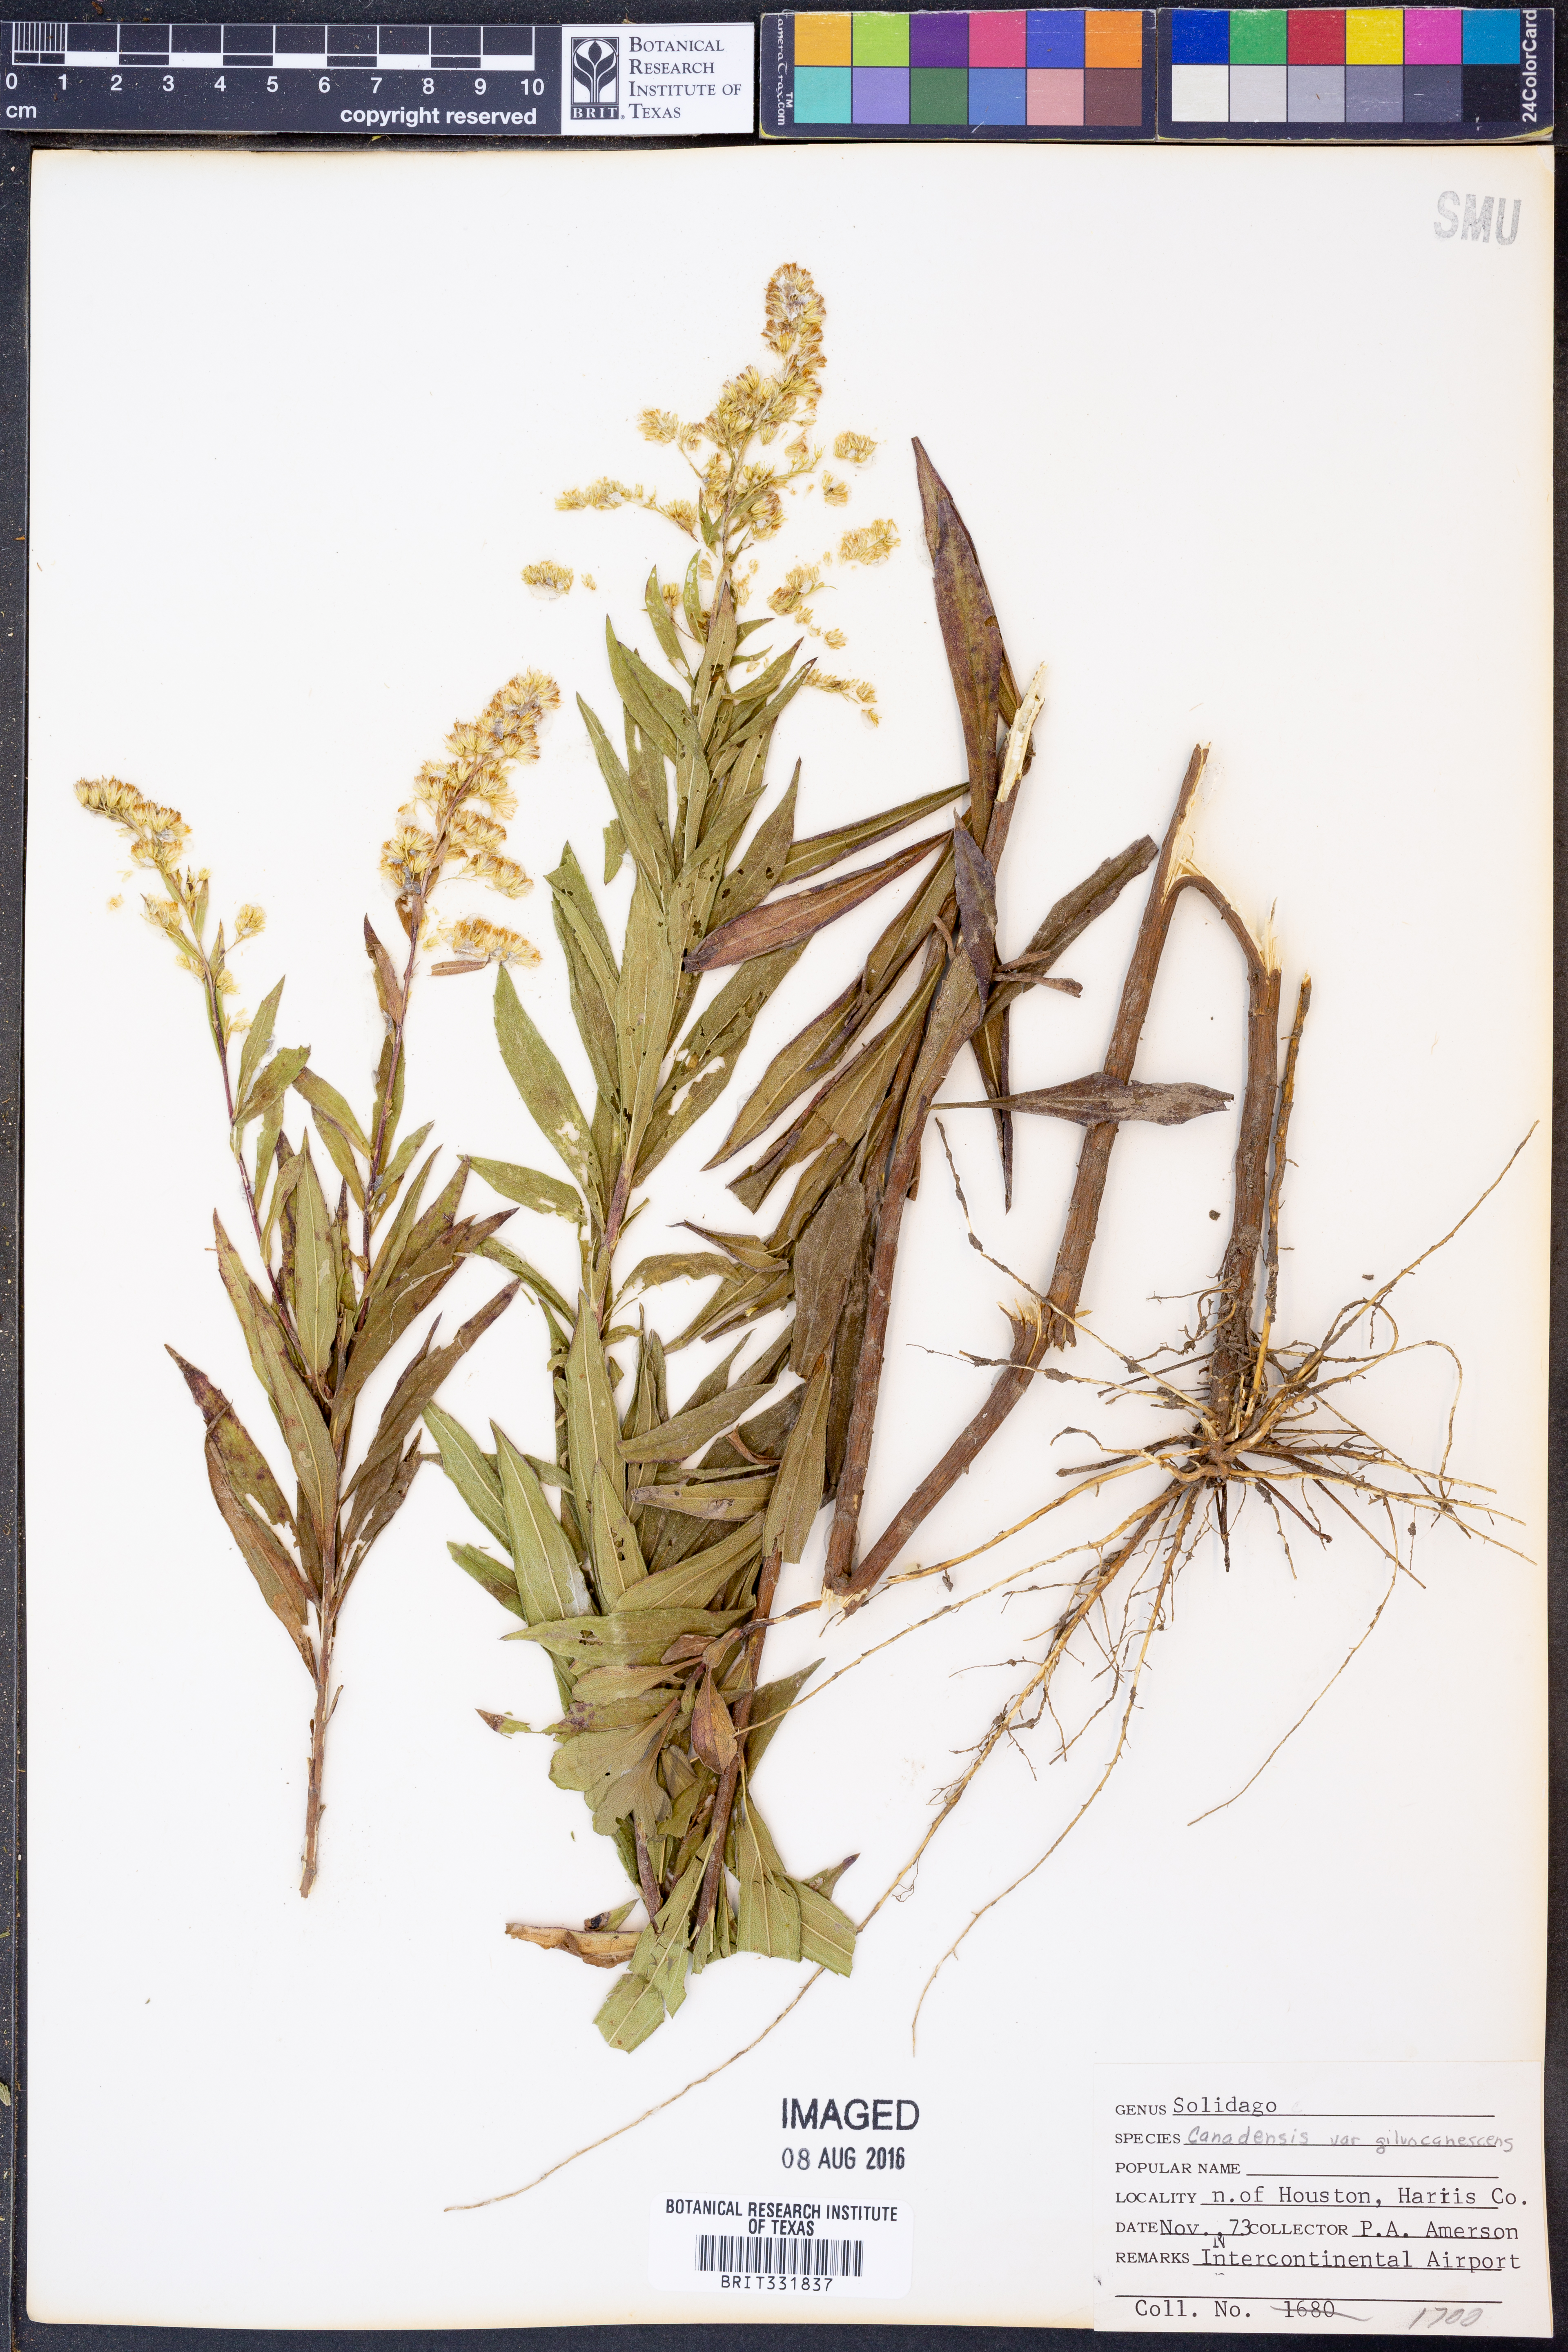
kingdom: Plantae
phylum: Tracheophyta
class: Magnoliopsida
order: Asterales
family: Asteraceae
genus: Solidago
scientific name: Solidago altissima
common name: Late goldenrod
